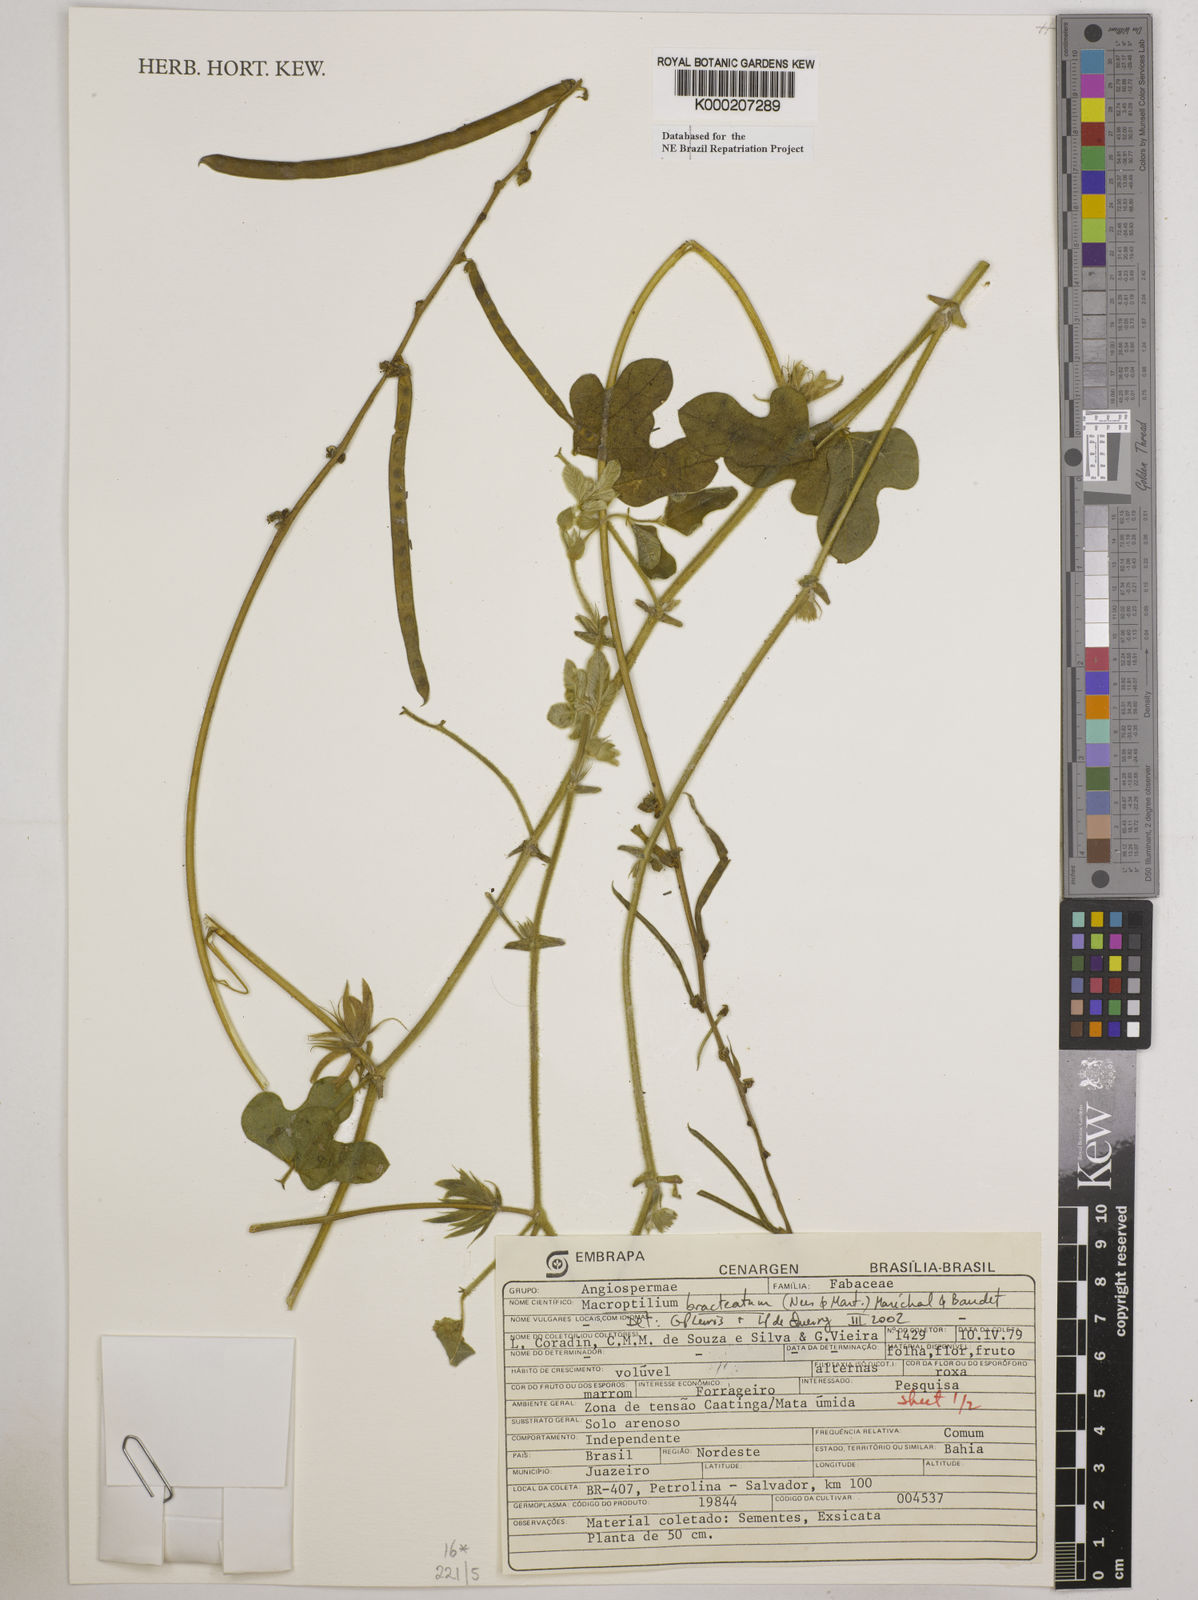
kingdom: Plantae
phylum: Tracheophyta
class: Magnoliopsida
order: Fabales
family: Fabaceae
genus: Macroptilium
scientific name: Macroptilium
